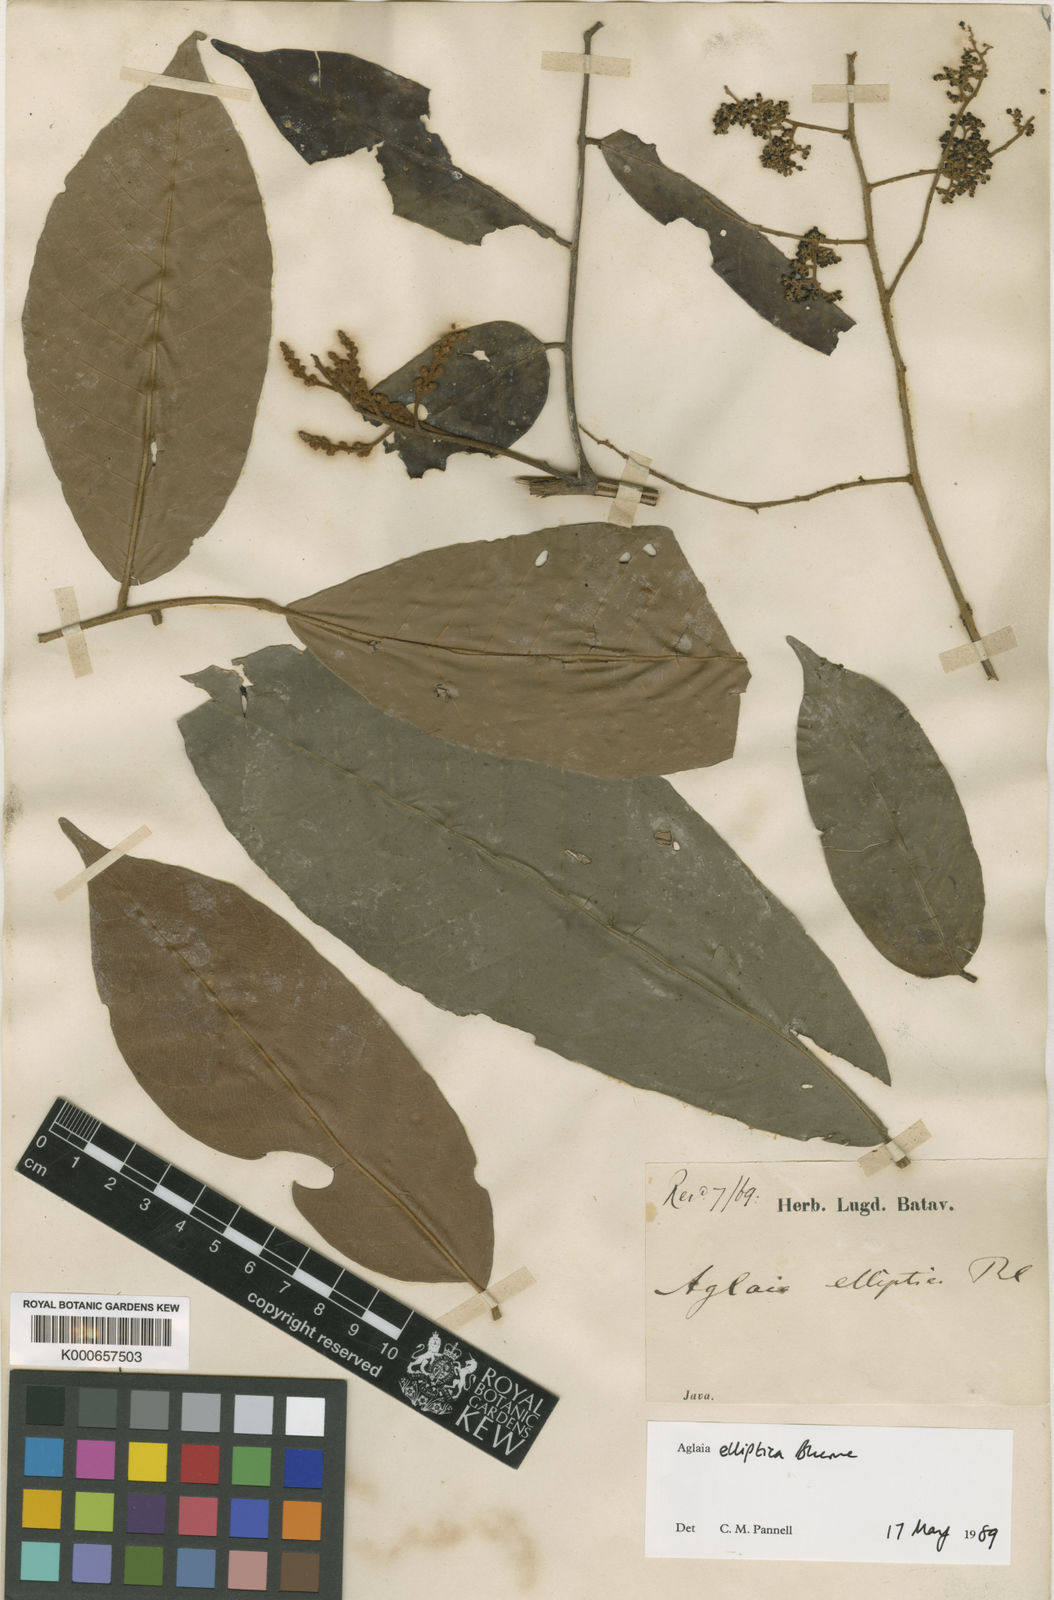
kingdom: Plantae
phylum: Tracheophyta
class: Magnoliopsida
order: Sapindales
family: Meliaceae
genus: Aglaia
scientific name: Aglaia elliptica
